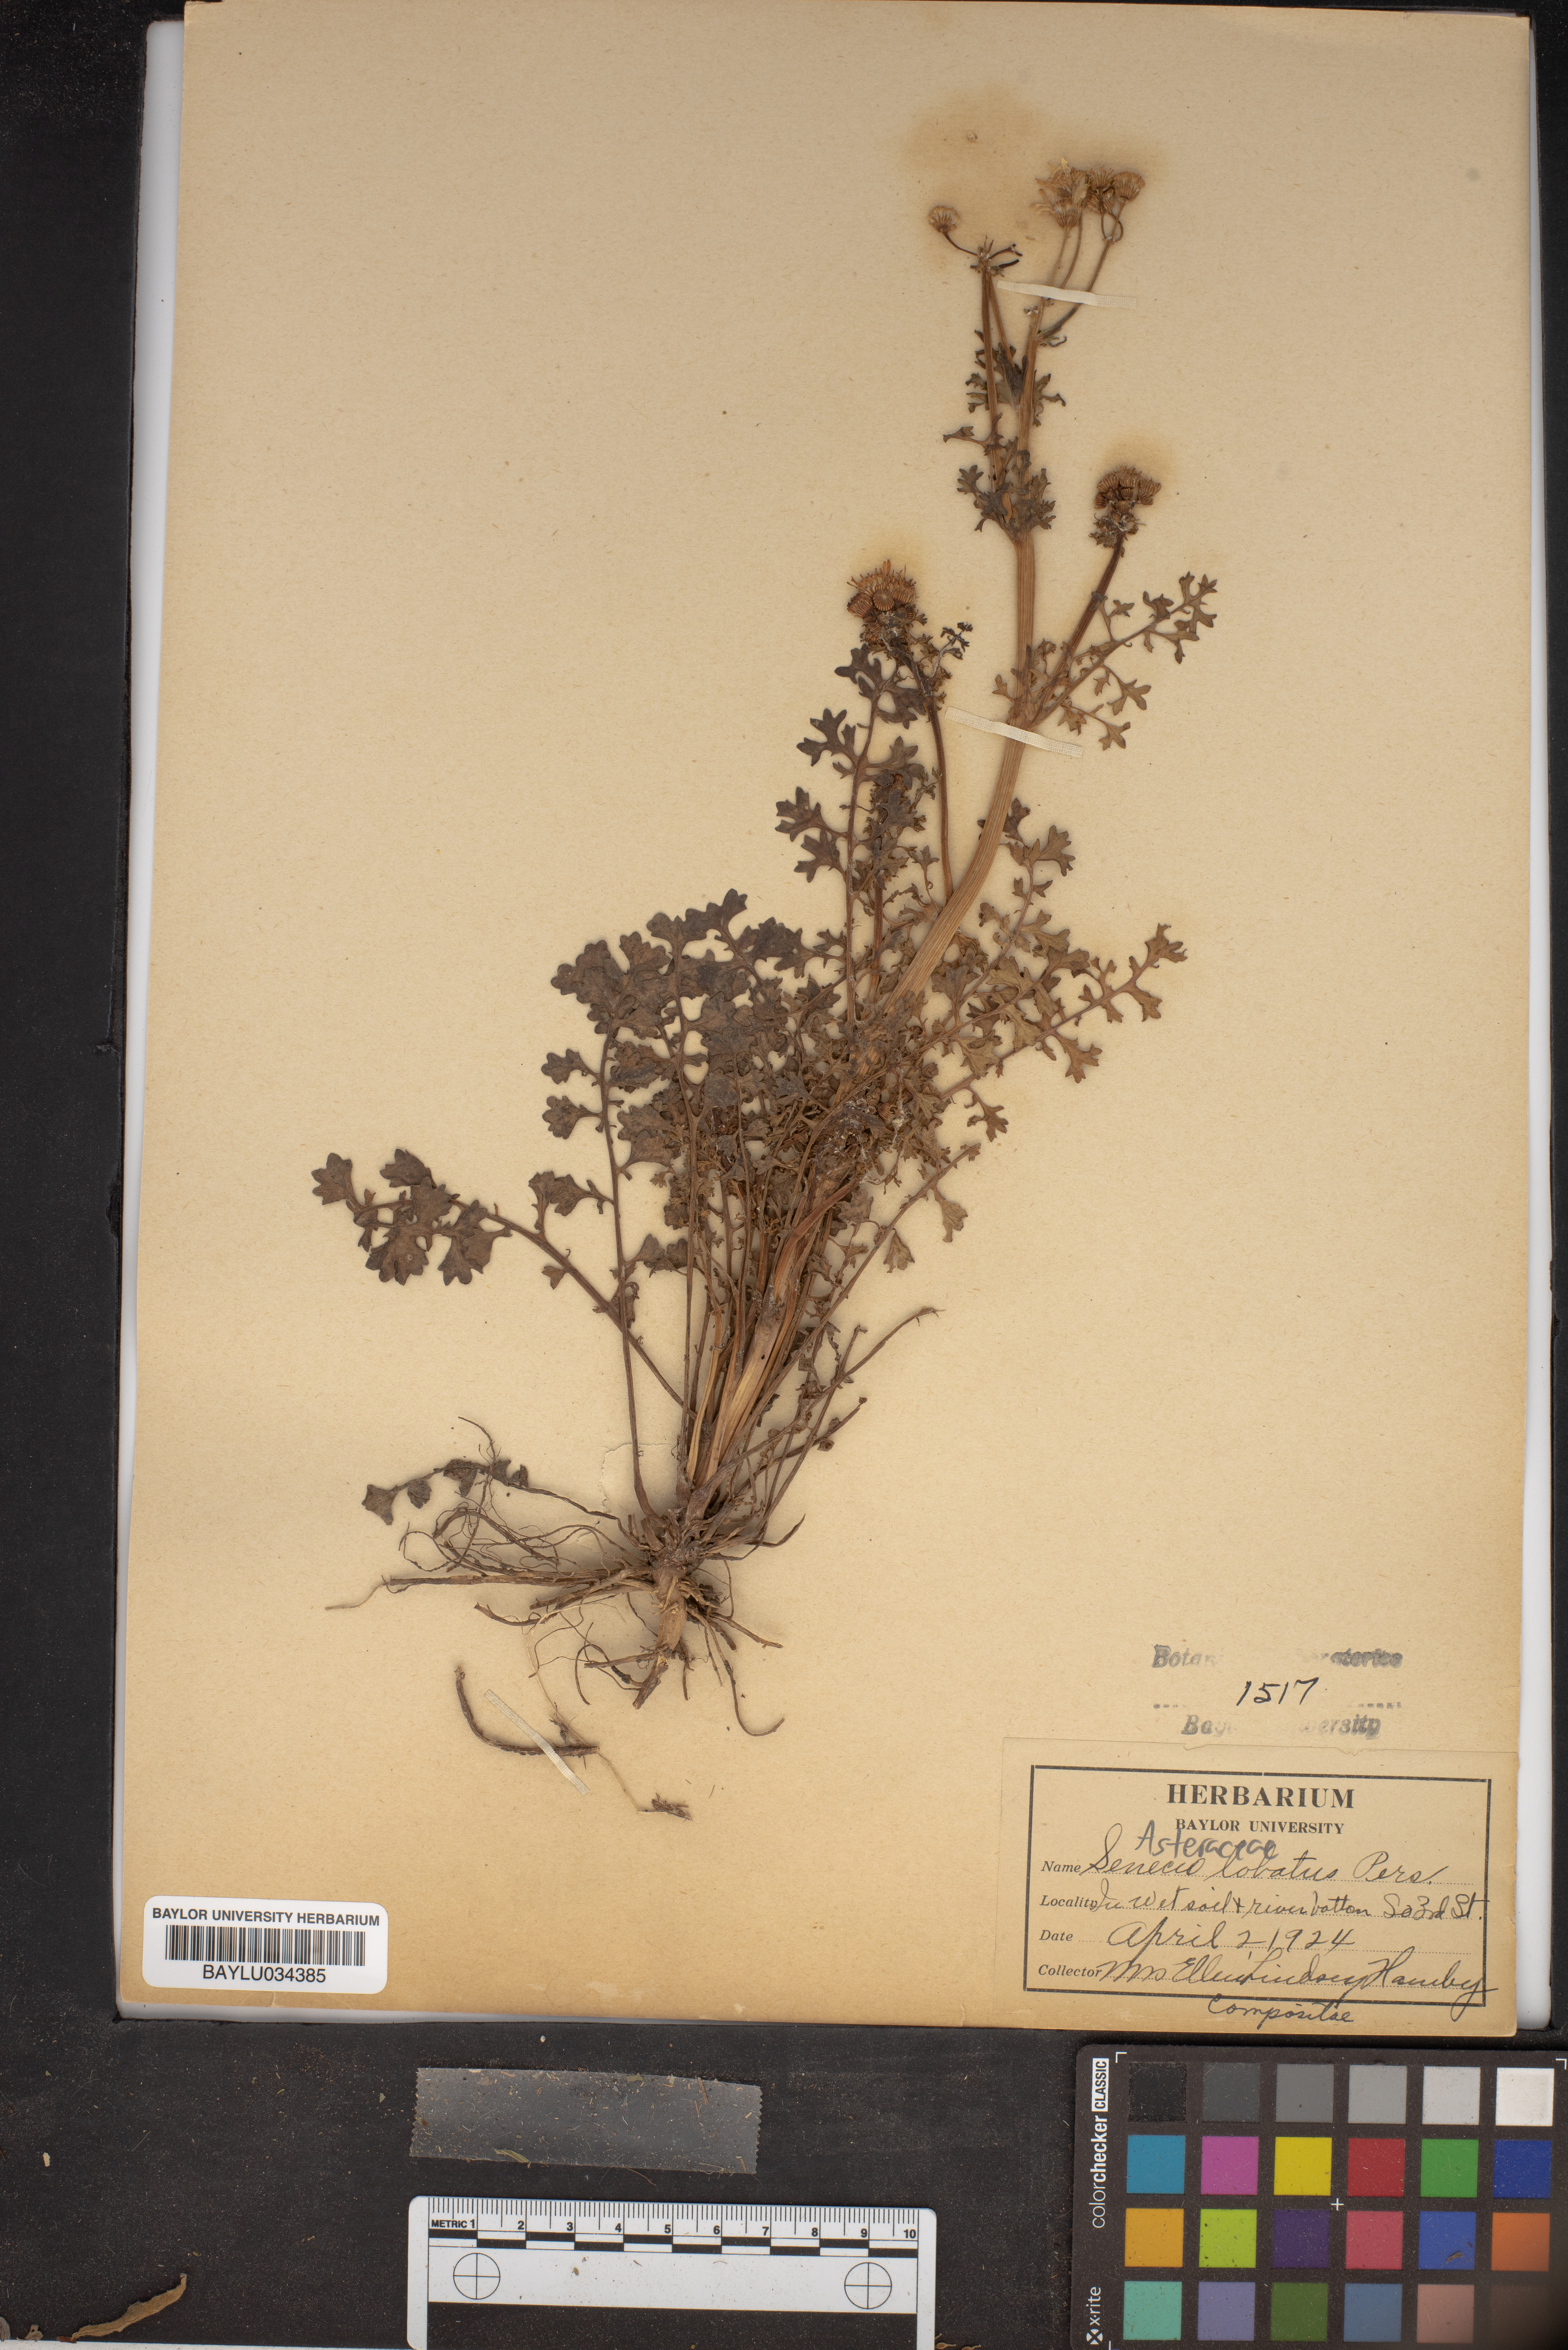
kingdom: Plantae
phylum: Tracheophyta
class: Magnoliopsida
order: Asterales
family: Asteraceae
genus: Packera
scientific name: Packera glabella
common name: Butterweed
